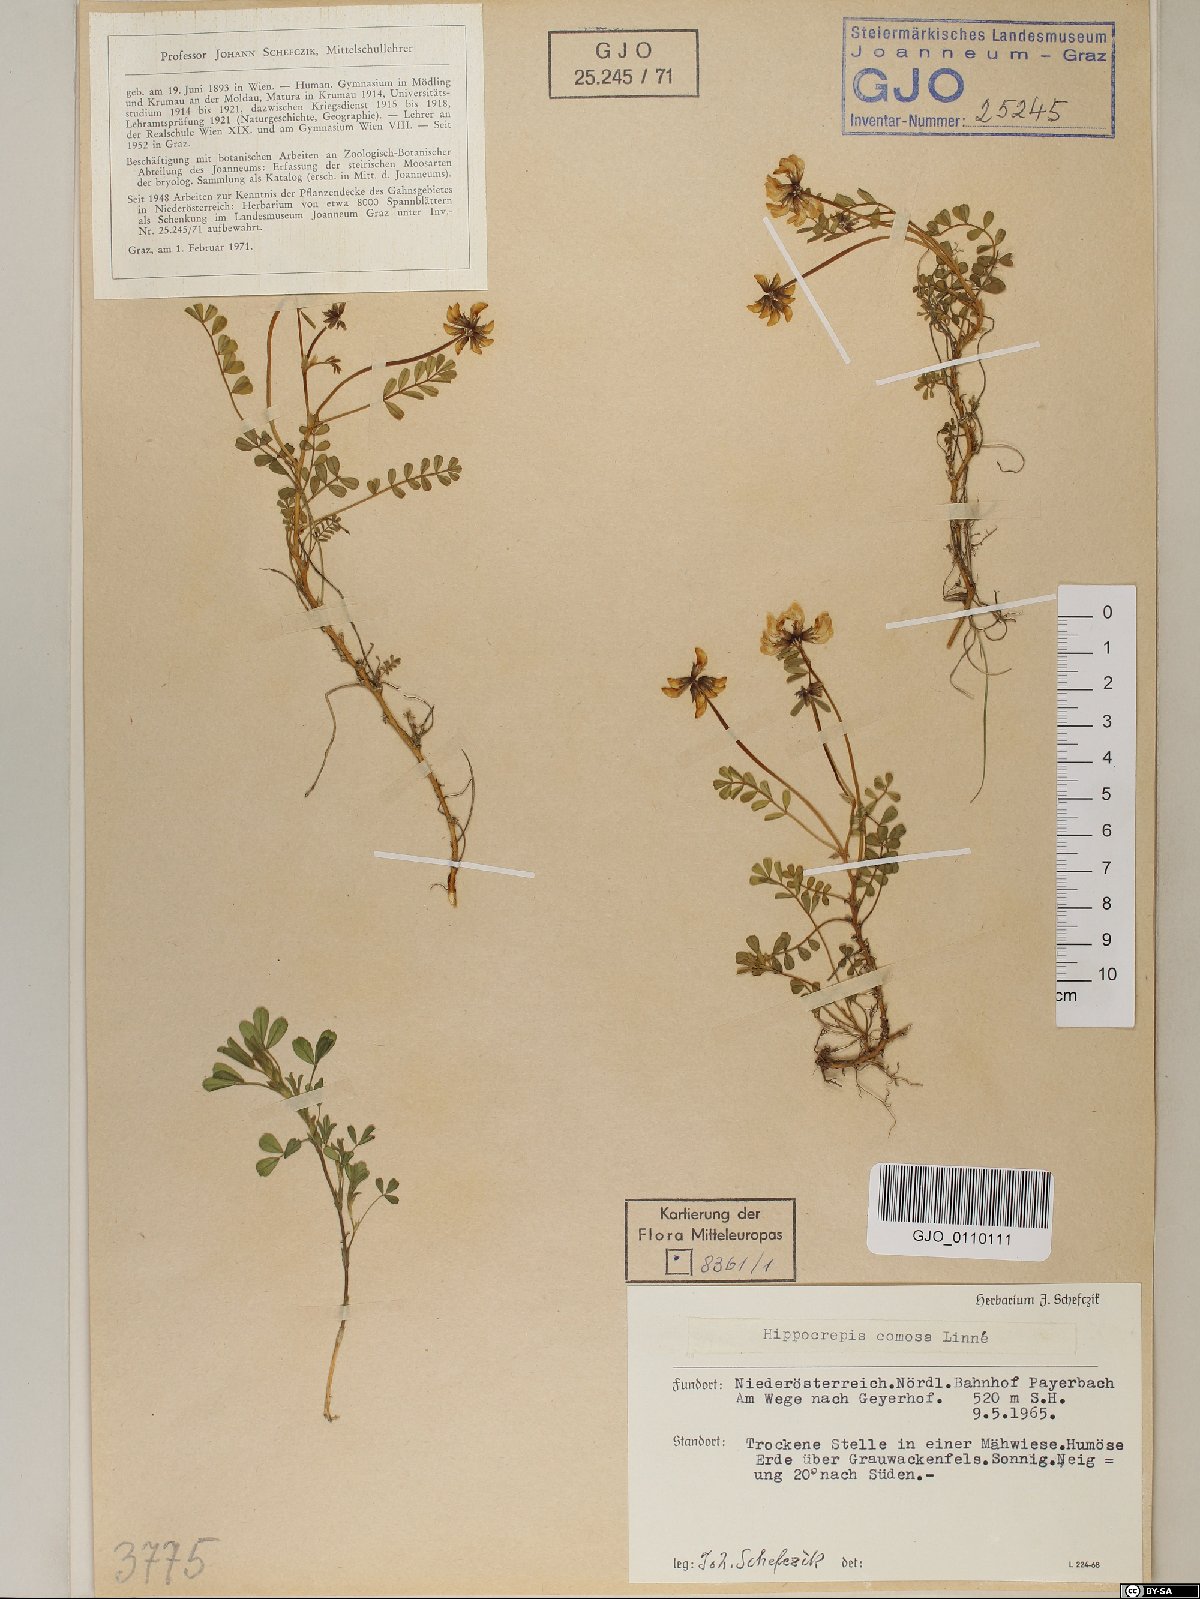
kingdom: Plantae
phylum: Tracheophyta
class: Magnoliopsida
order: Fabales
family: Fabaceae
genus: Hippocrepis
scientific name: Hippocrepis comosa
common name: Horseshoe vetch
